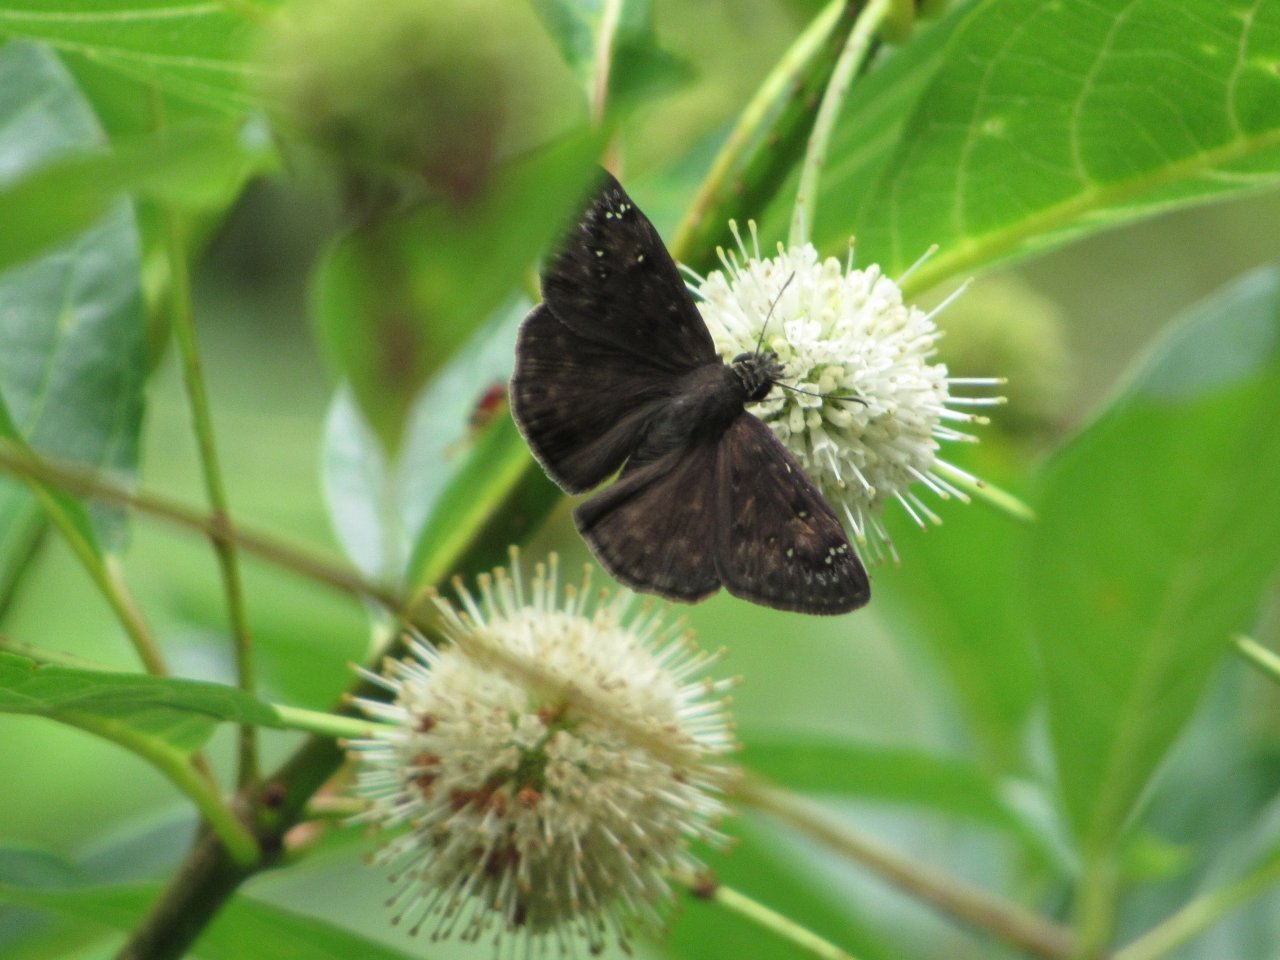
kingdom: Animalia
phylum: Arthropoda
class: Insecta
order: Lepidoptera
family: Hesperiidae
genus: Gesta
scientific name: Gesta
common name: Horace's Duskywing
